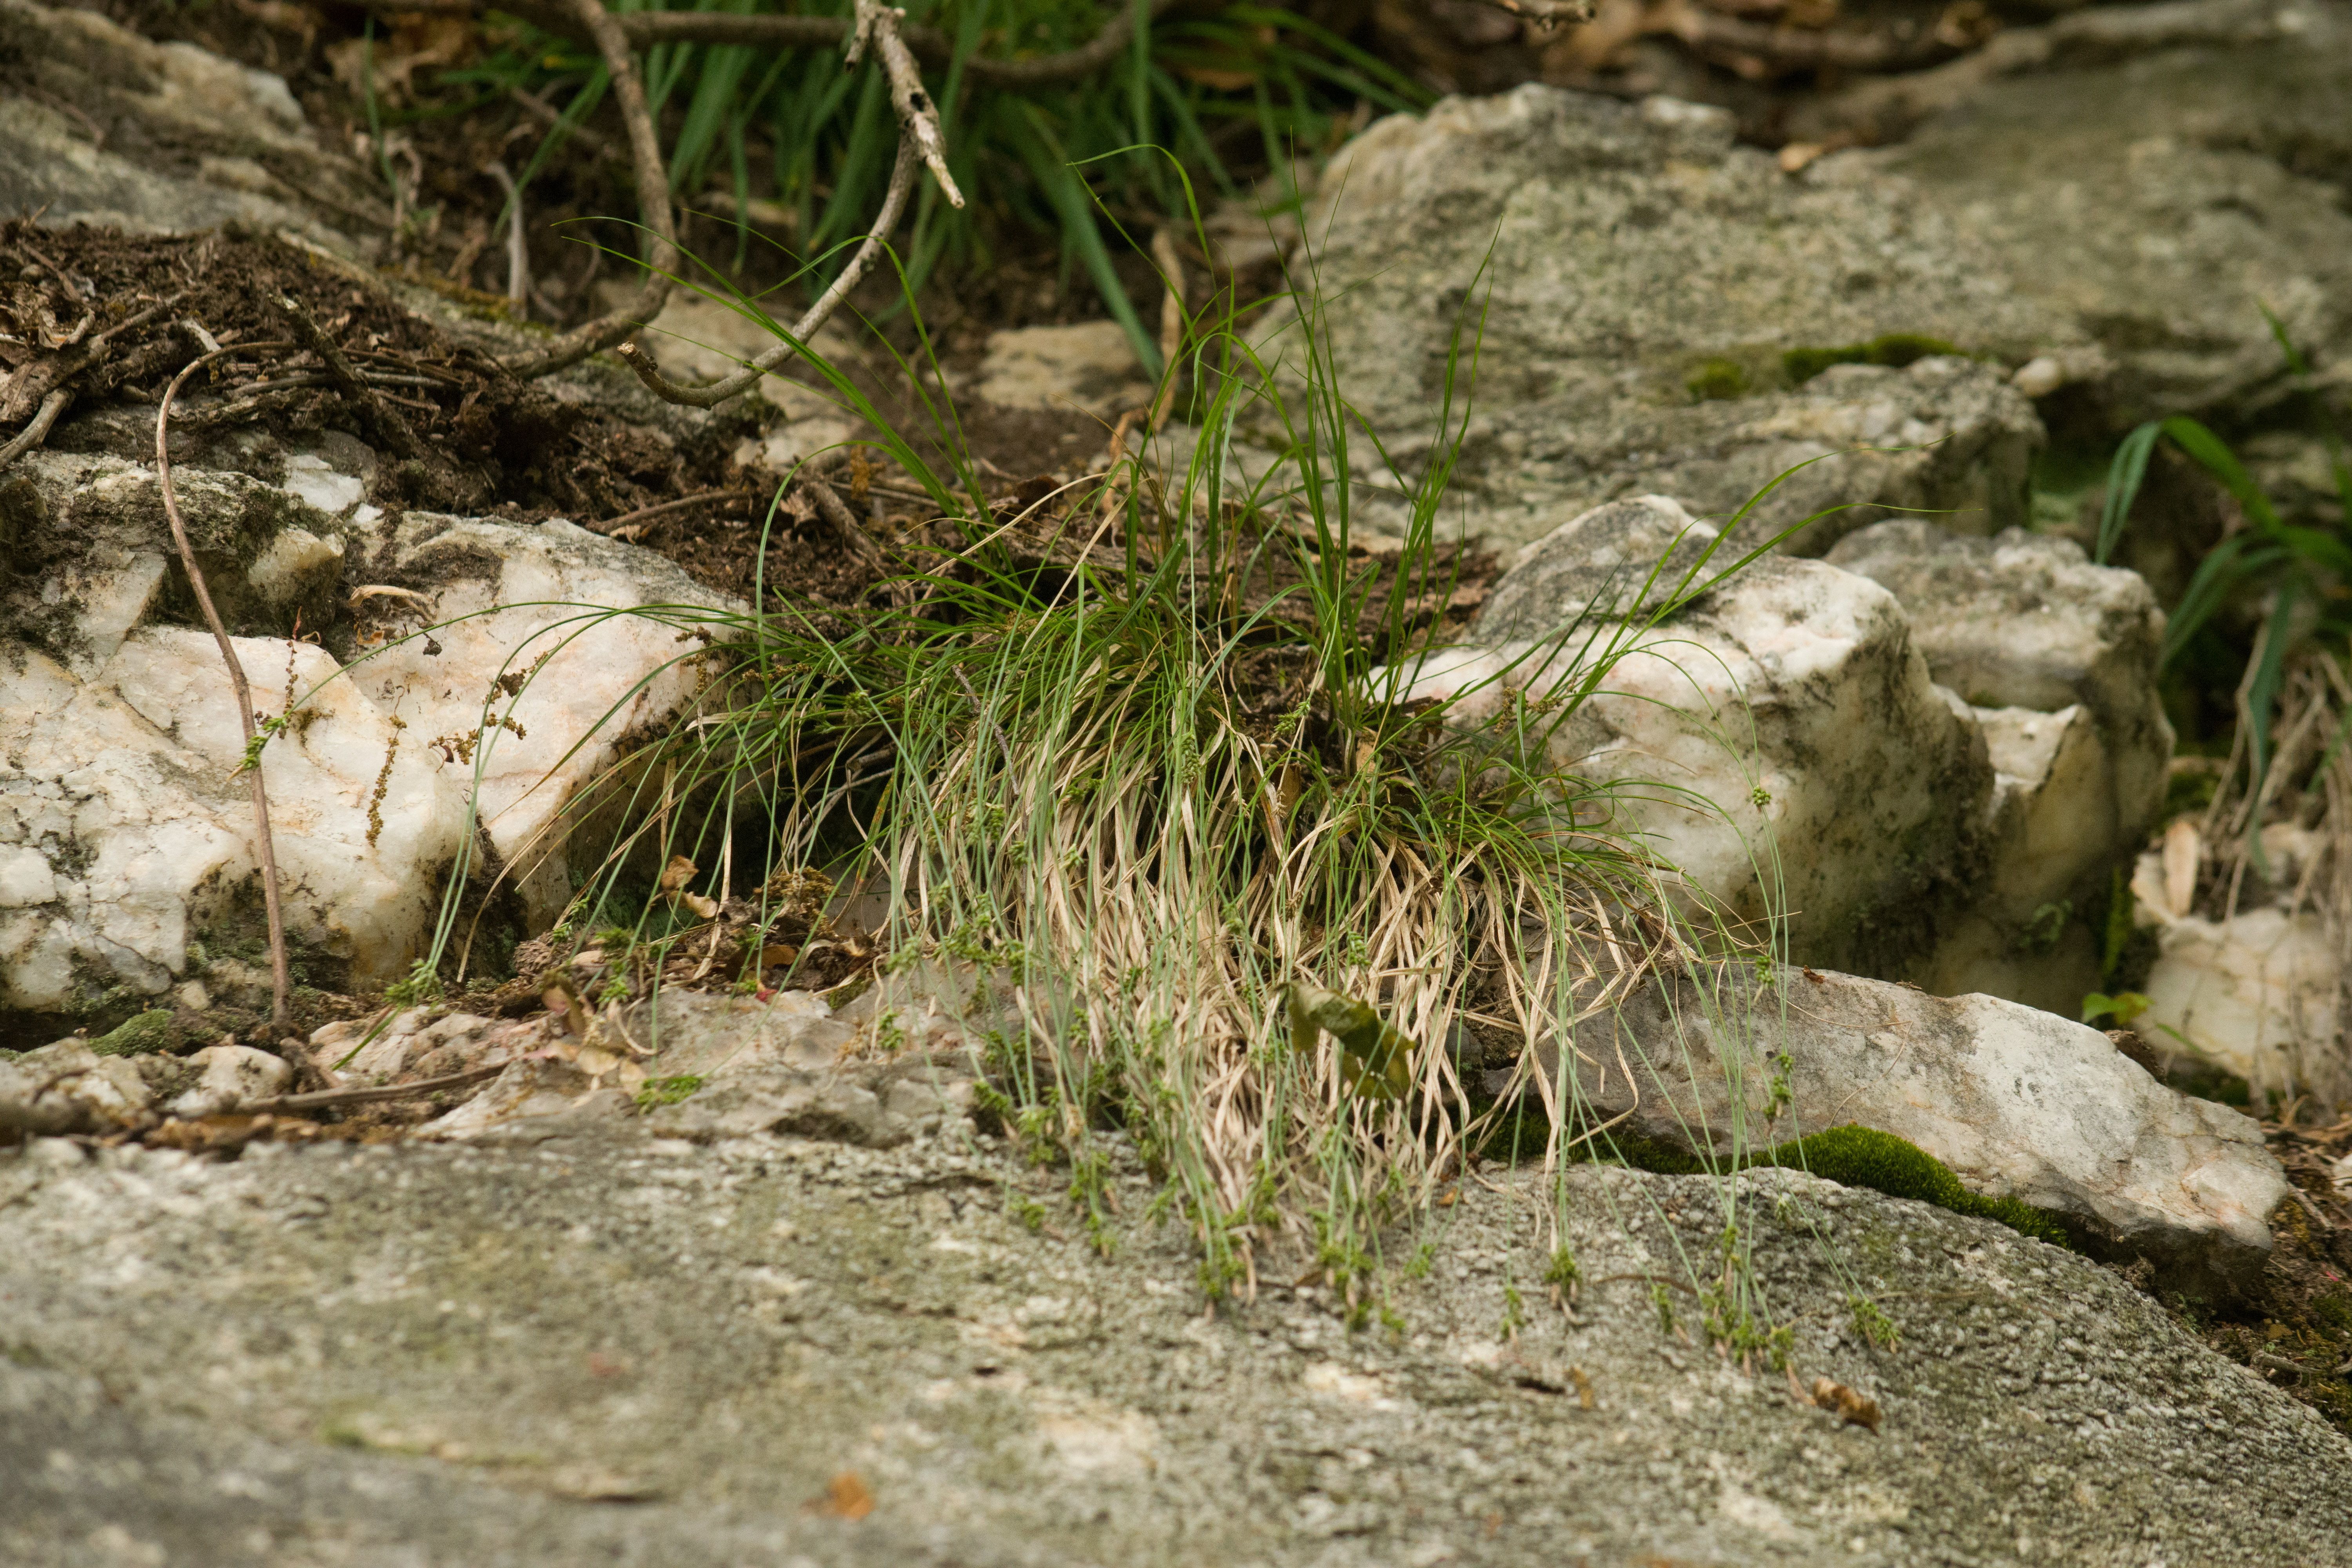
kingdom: Plantae
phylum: Tracheophyta
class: Liliopsida
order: Poales
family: Cyperaceae
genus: Carex
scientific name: Carex albicans
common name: Bellow-beaked sedge
